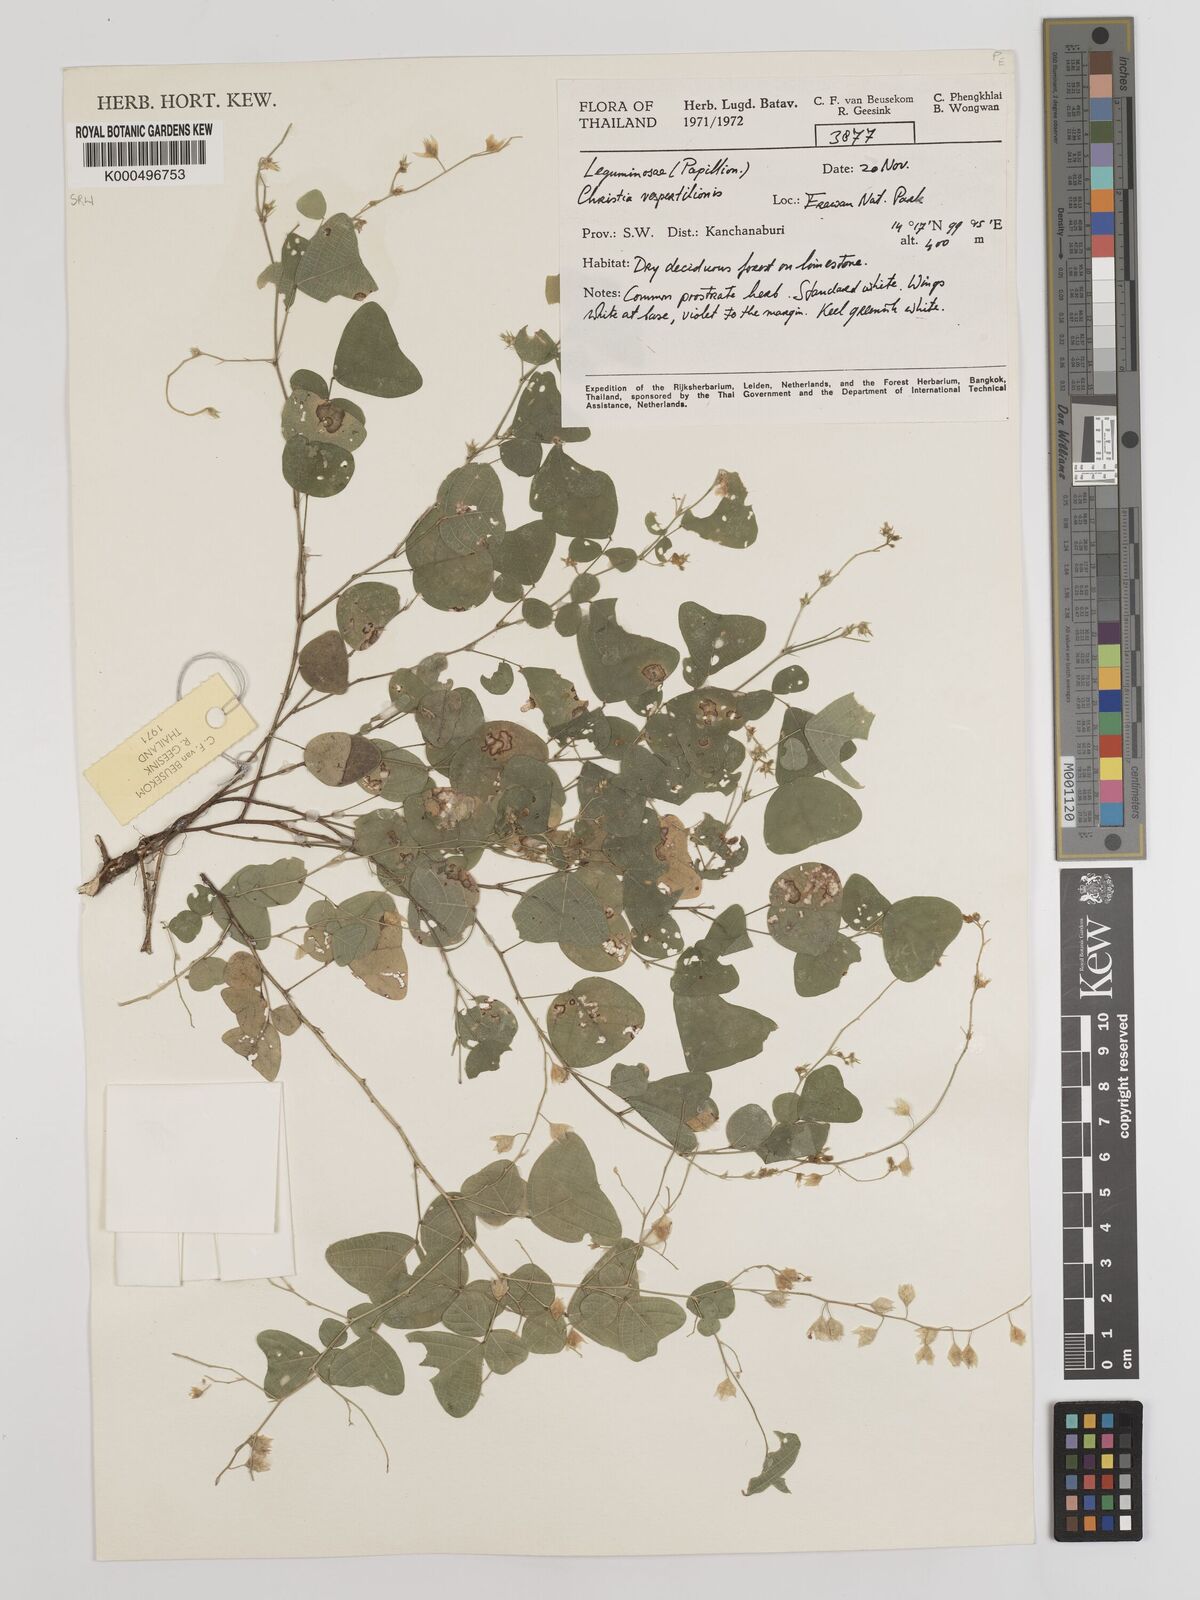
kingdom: Plantae
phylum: Tracheophyta
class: Magnoliopsida
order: Fabales
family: Fabaceae
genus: Christia
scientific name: Christia vespertilionis
